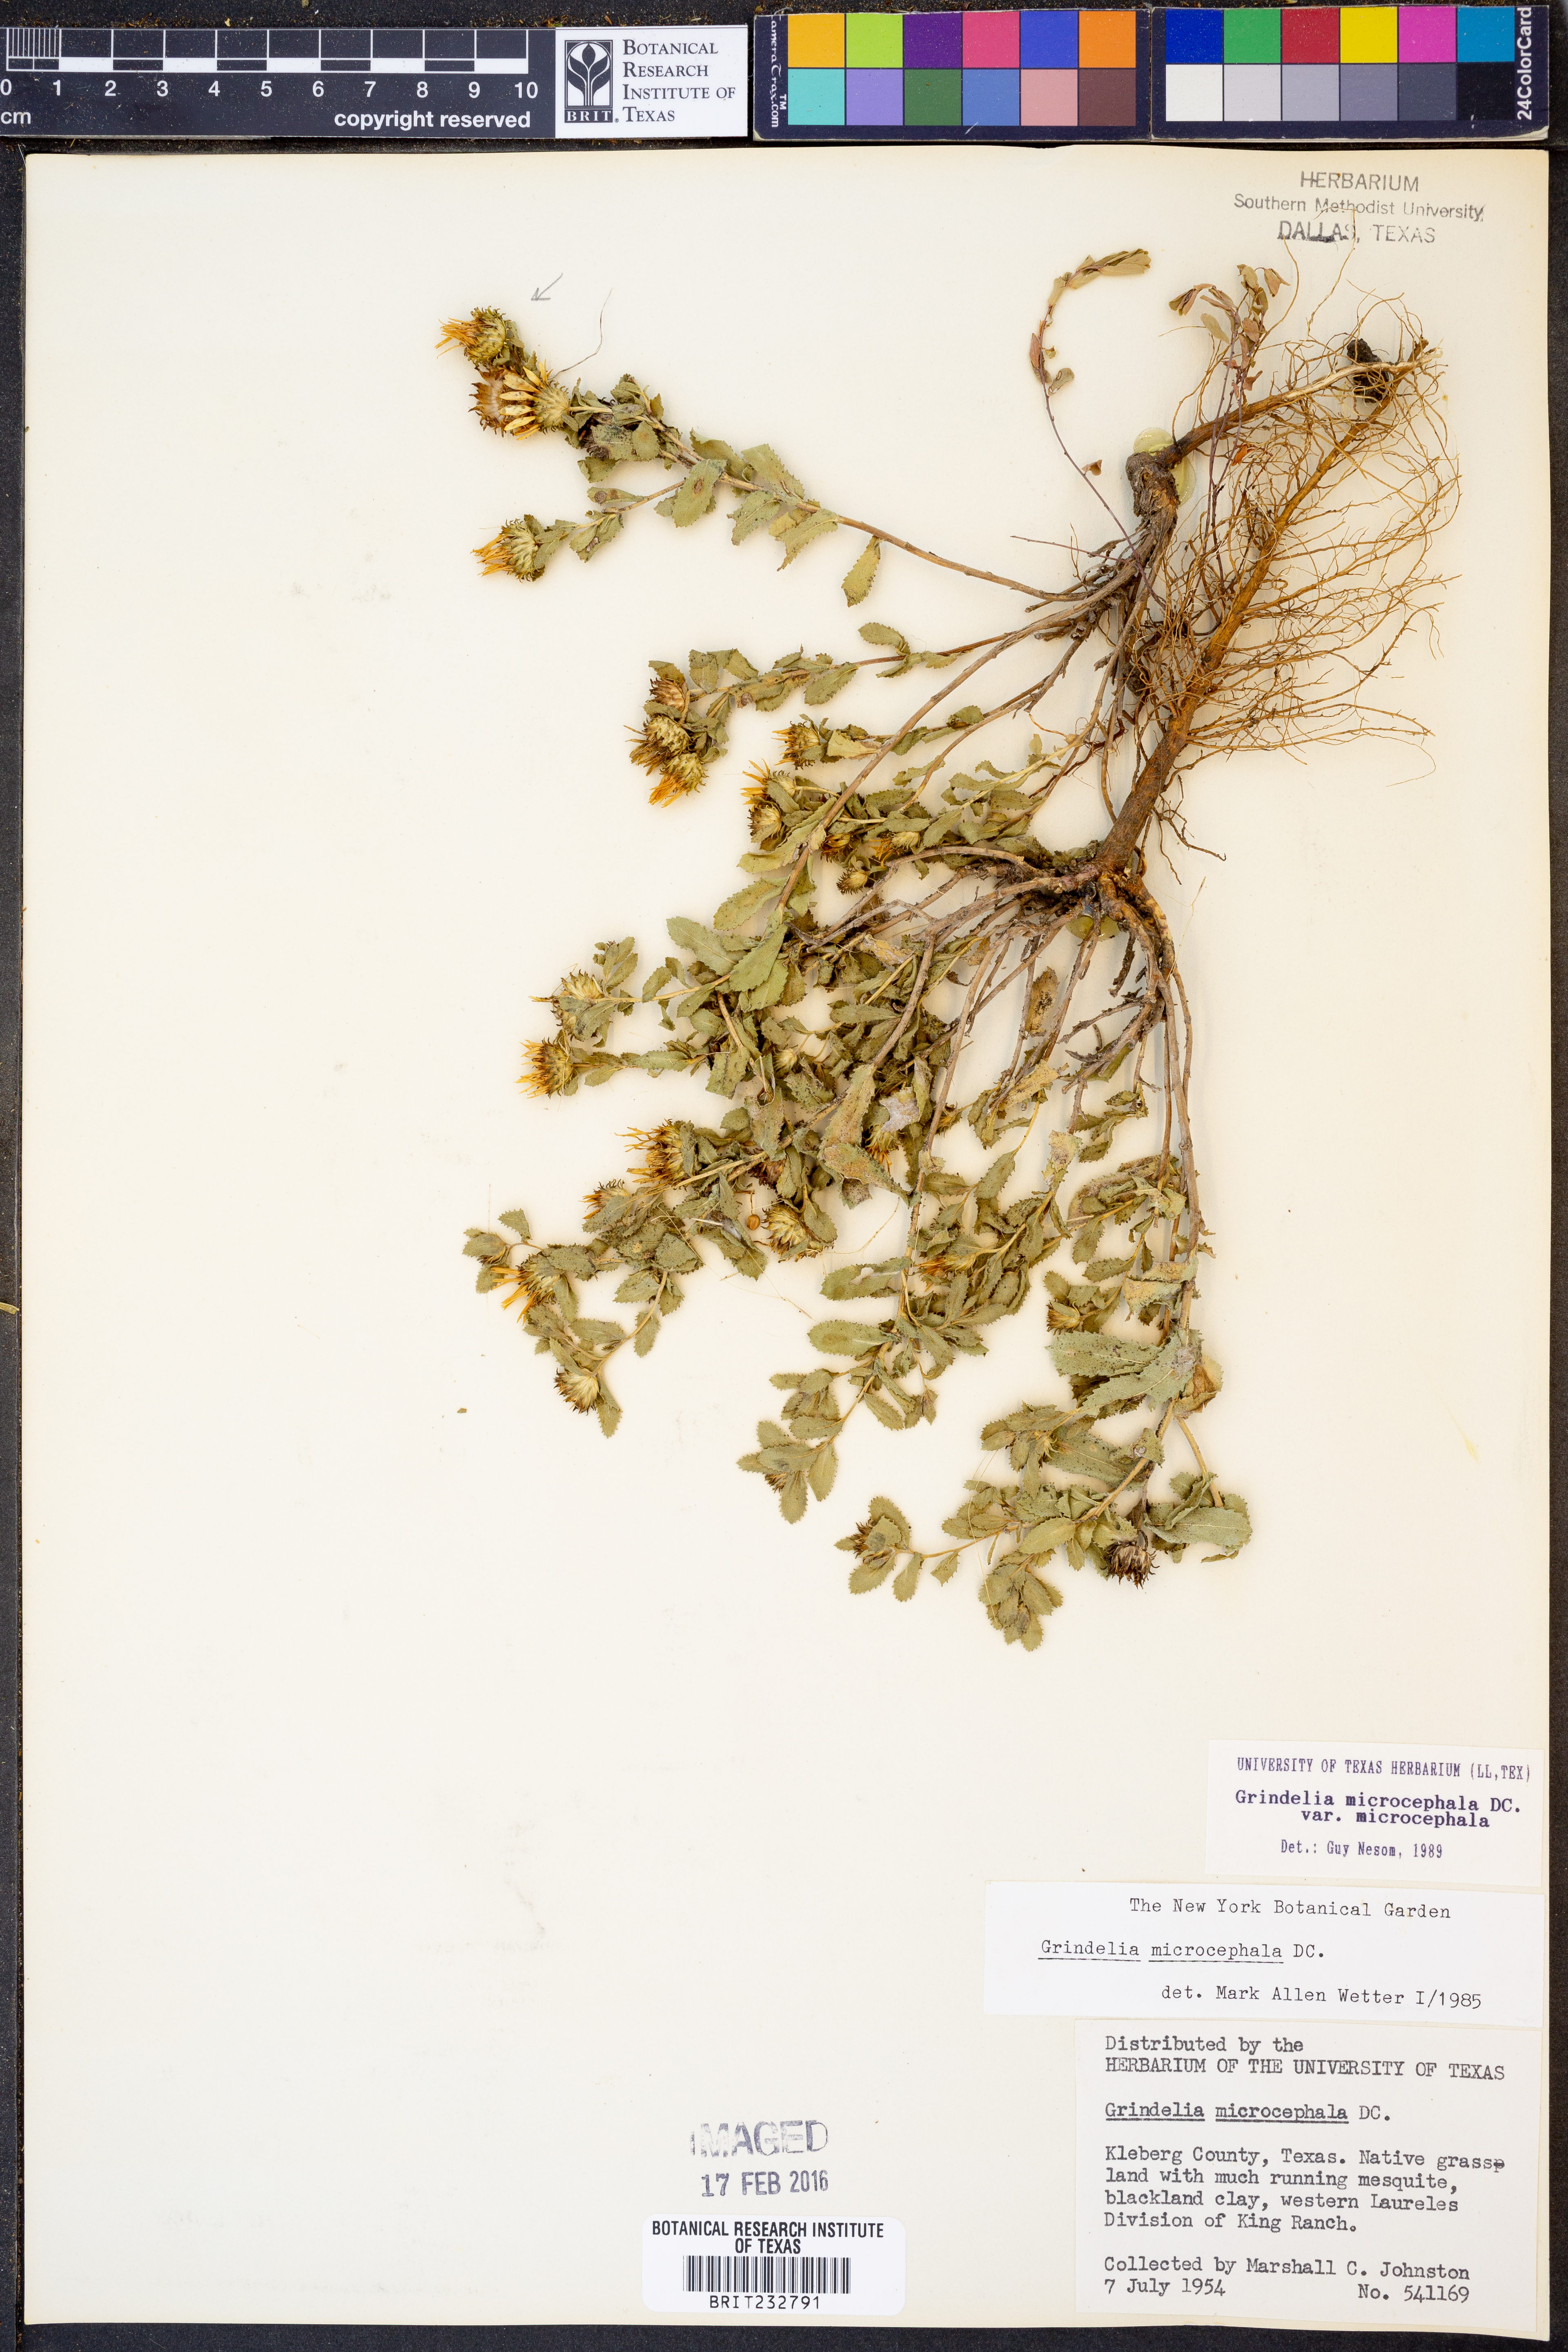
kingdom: Plantae
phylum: Tracheophyta
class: Magnoliopsida
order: Asterales
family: Asteraceae
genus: Grindelia
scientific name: Grindelia microcephala
